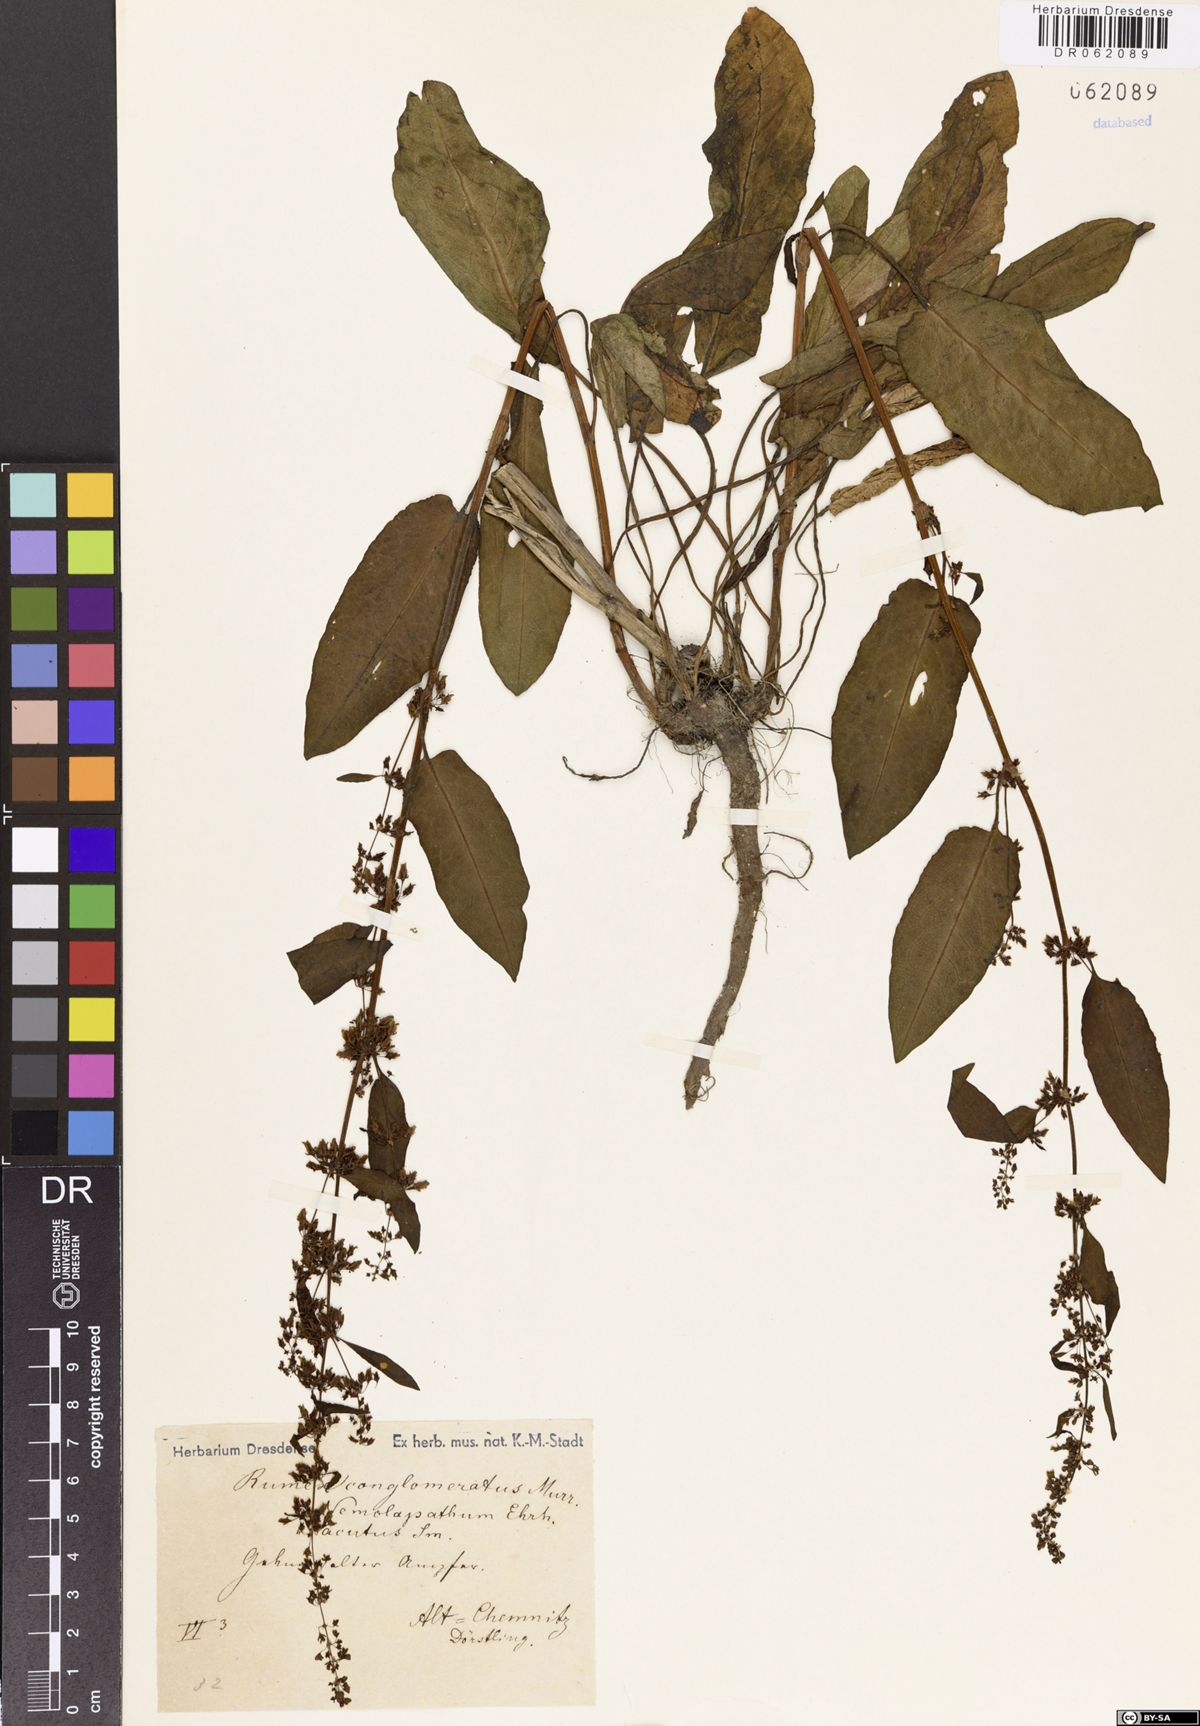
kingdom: Plantae
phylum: Tracheophyta
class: Magnoliopsida
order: Caryophyllales
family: Polygonaceae
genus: Rumex
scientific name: Rumex conglomeratus
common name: Clustered dock
